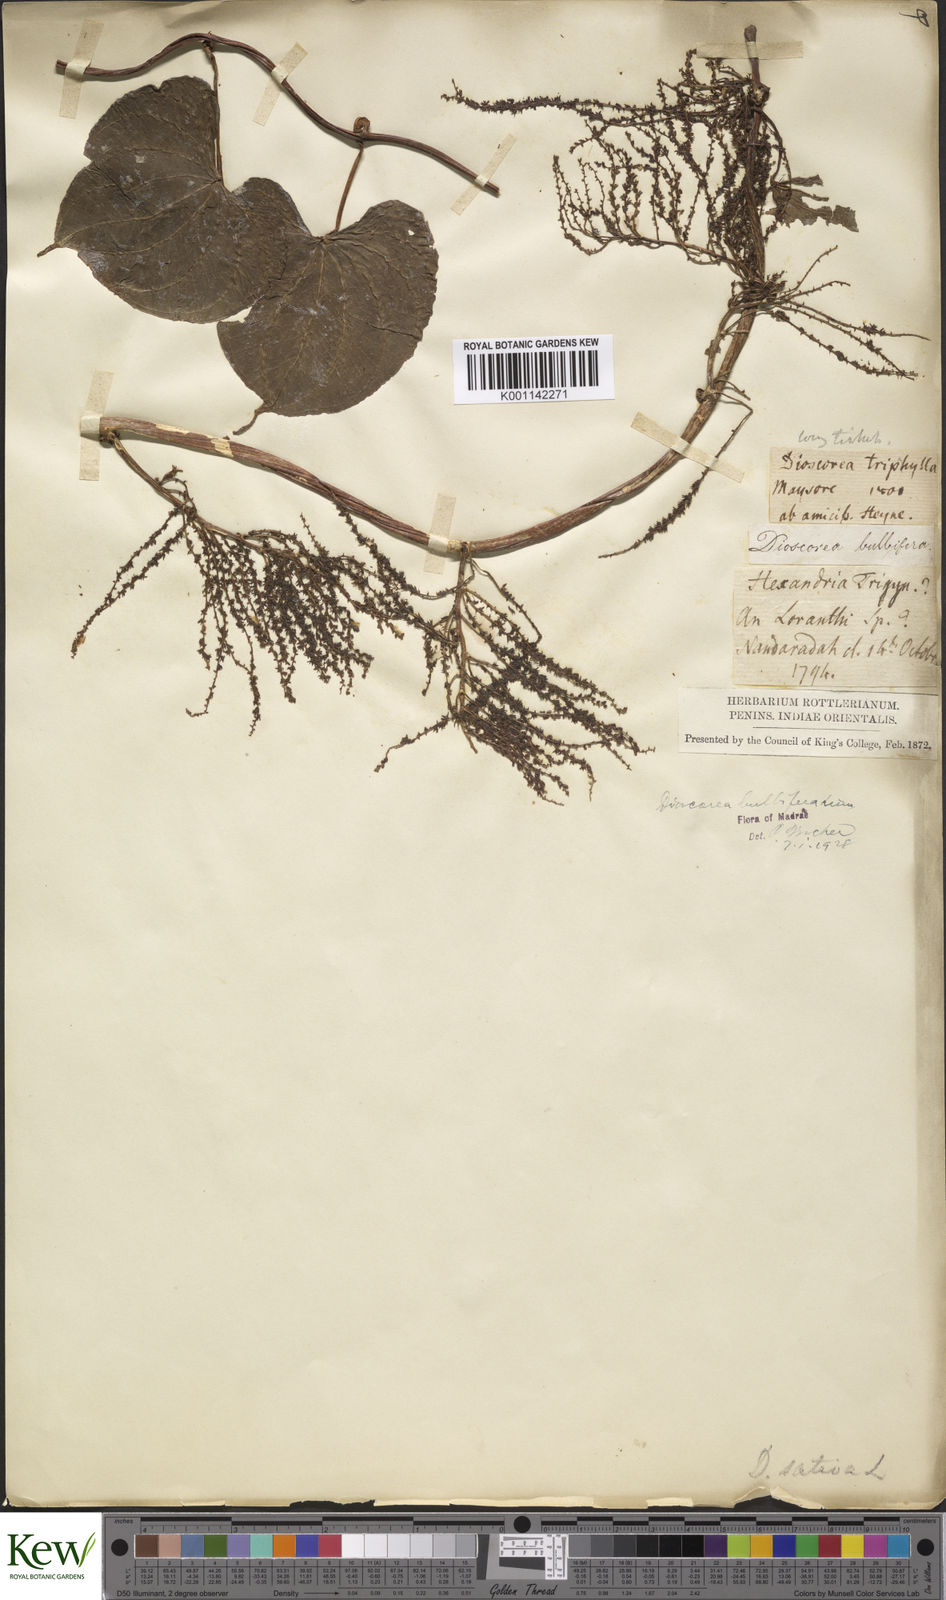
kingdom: Plantae
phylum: Tracheophyta
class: Liliopsida
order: Dioscoreales
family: Dioscoreaceae
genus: Dioscorea
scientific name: Dioscorea bulbifera
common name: Air yam
